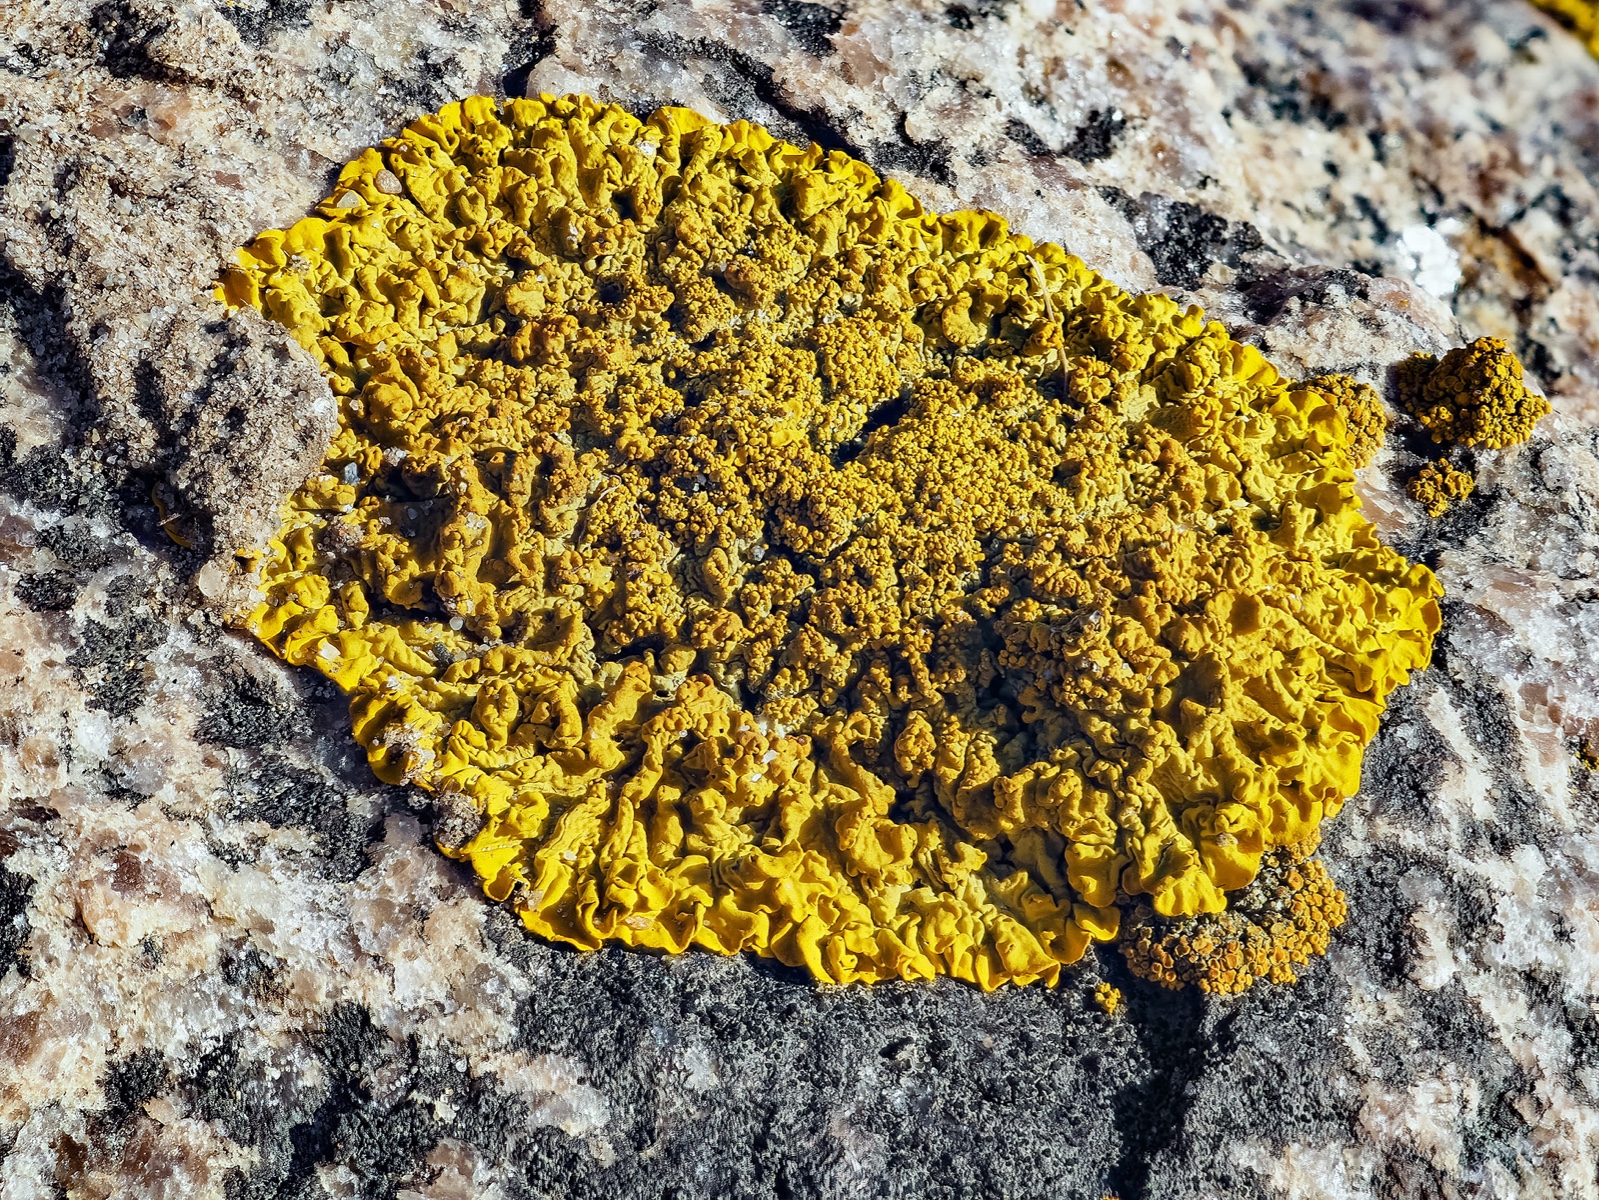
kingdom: Fungi
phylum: Ascomycota
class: Lecanoromycetes
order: Teloschistales
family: Teloschistaceae
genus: Xanthoria
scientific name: Xanthoria calcicola
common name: vortet væggelav
